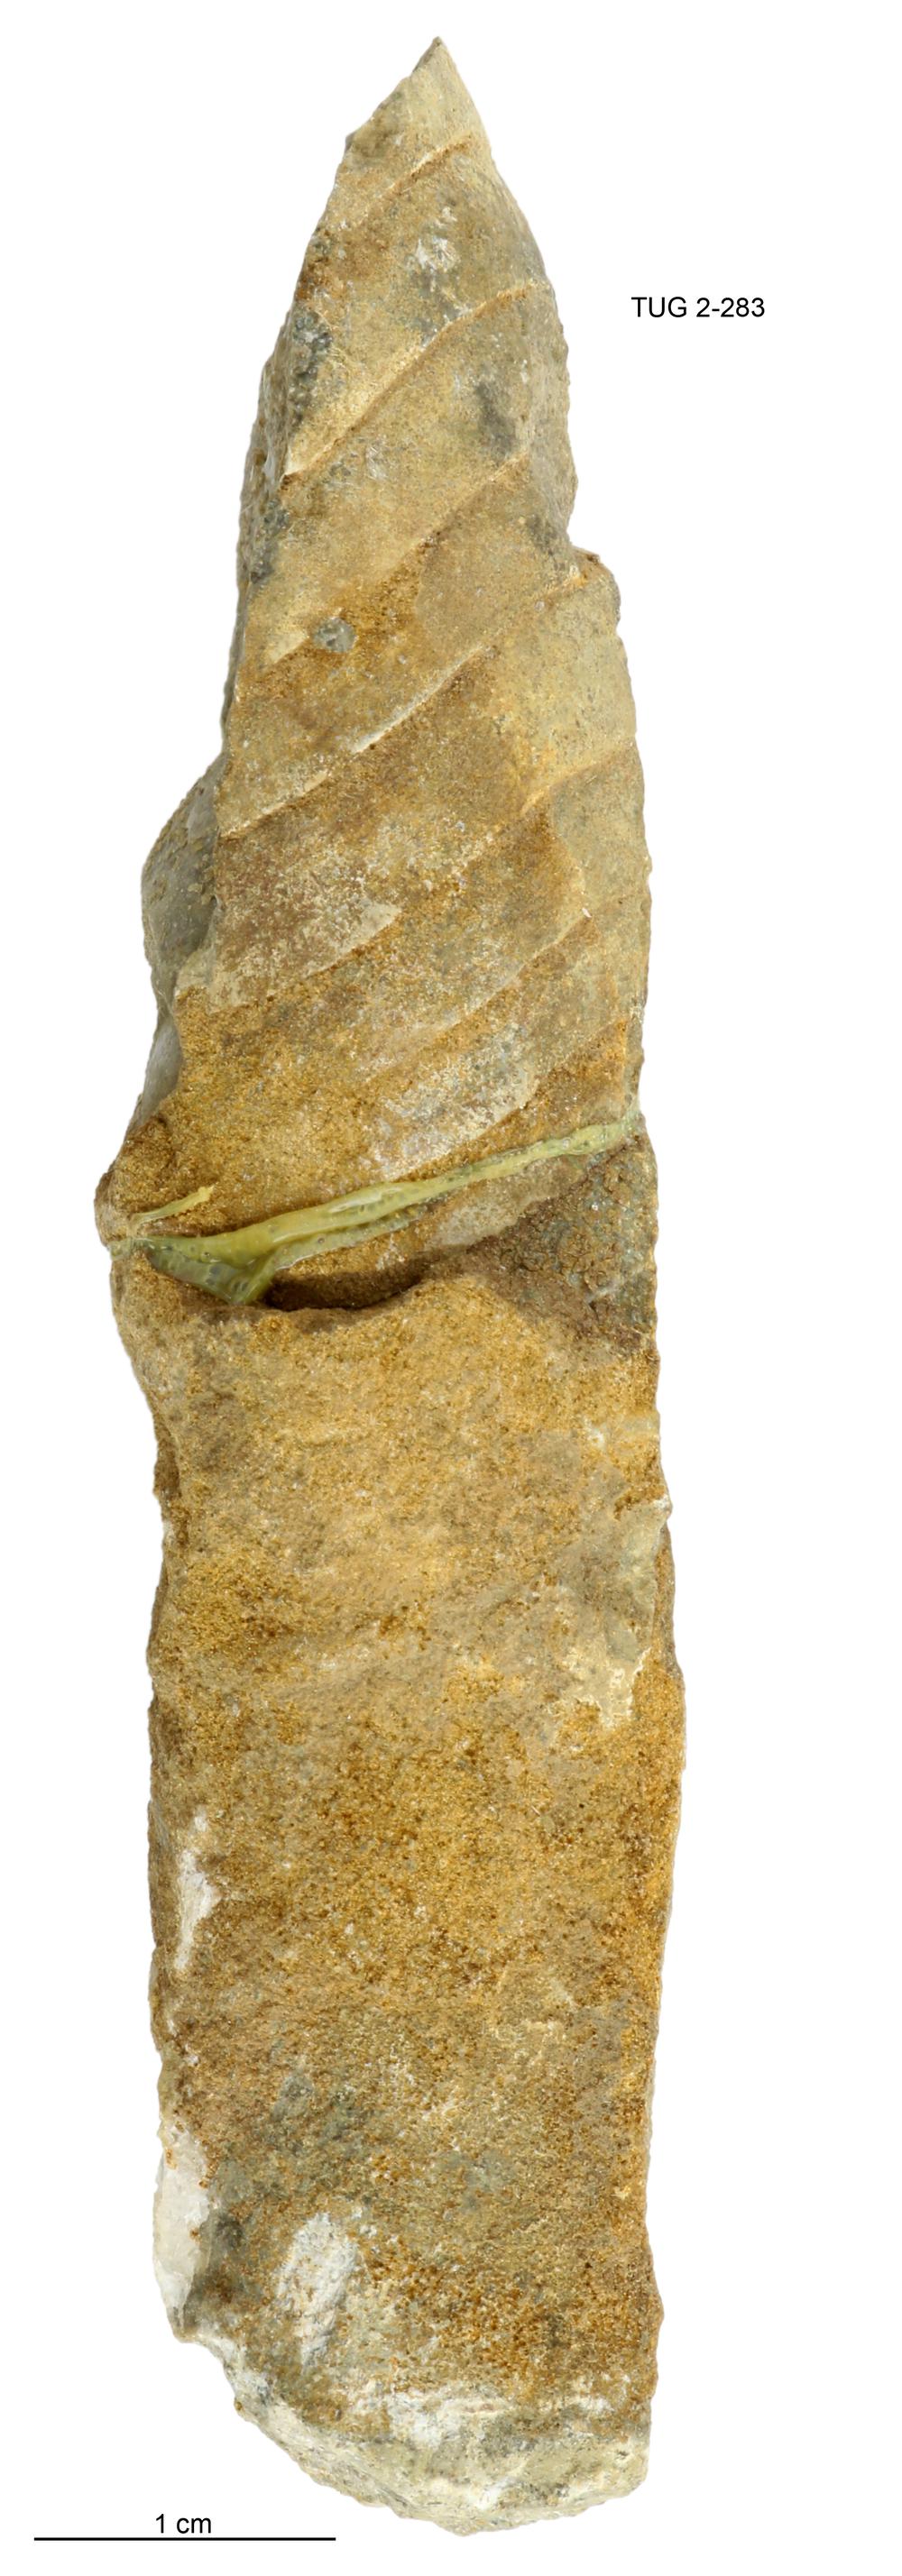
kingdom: Animalia
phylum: Mollusca
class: Cephalopoda
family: Tarphyceratidae
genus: Planctoceras
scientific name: Planctoceras
